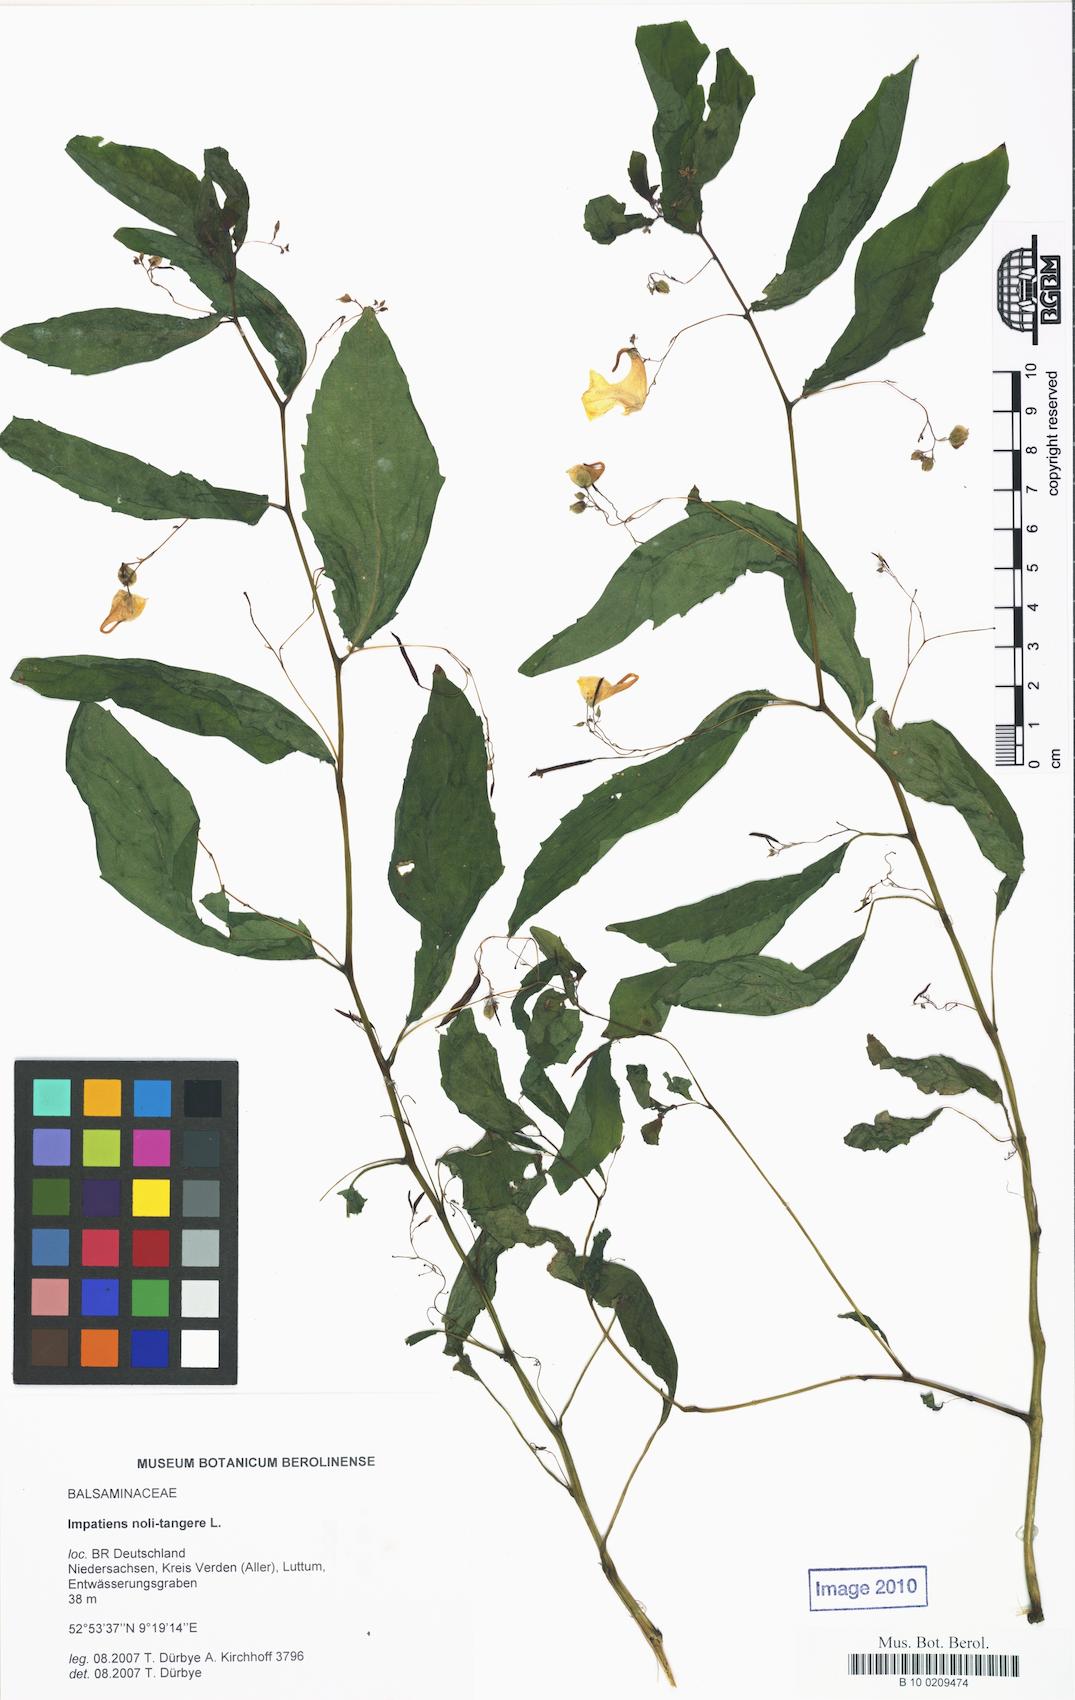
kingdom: Plantae
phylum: Tracheophyta
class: Magnoliopsida
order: Ericales
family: Balsaminaceae
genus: Impatiens
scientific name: Impatiens noli-tangere
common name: Touch-me-not balsam
